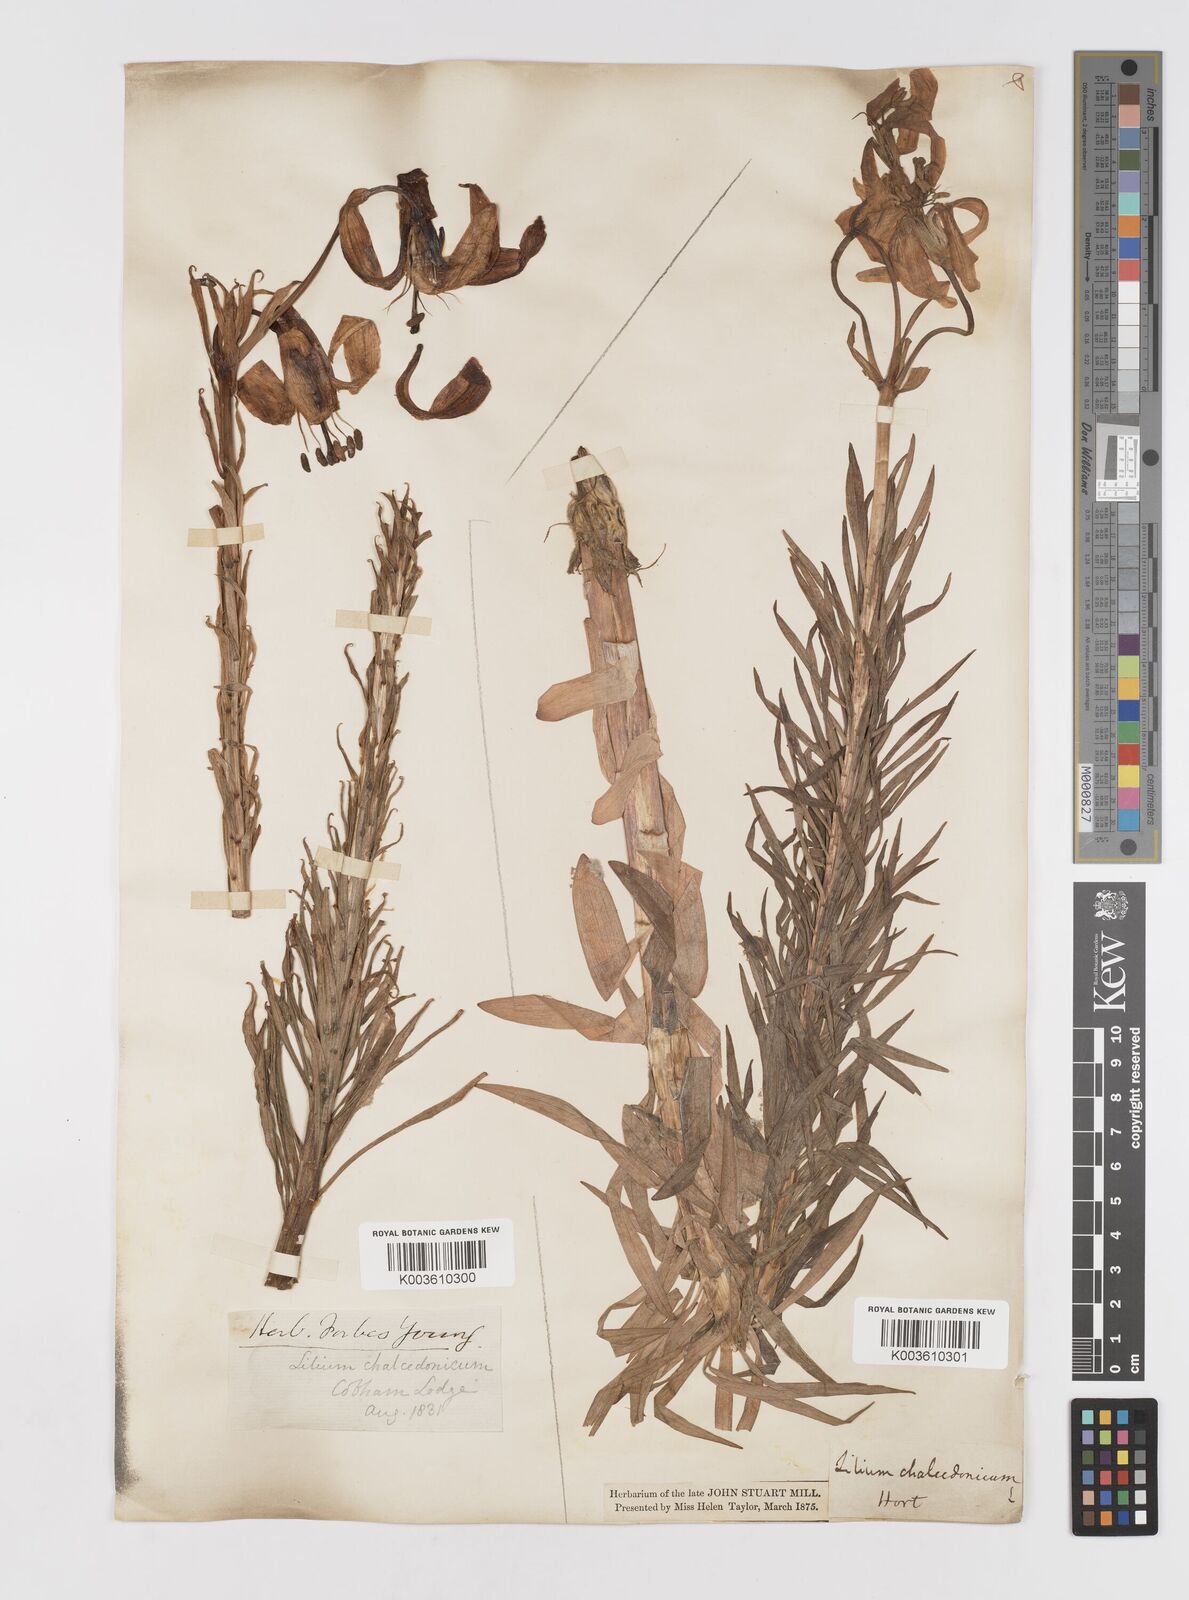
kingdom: Plantae
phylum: Tracheophyta
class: Liliopsida
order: Liliales
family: Liliaceae
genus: Lilium
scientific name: Lilium chalcedonicum
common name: Red martagon of constantinople
